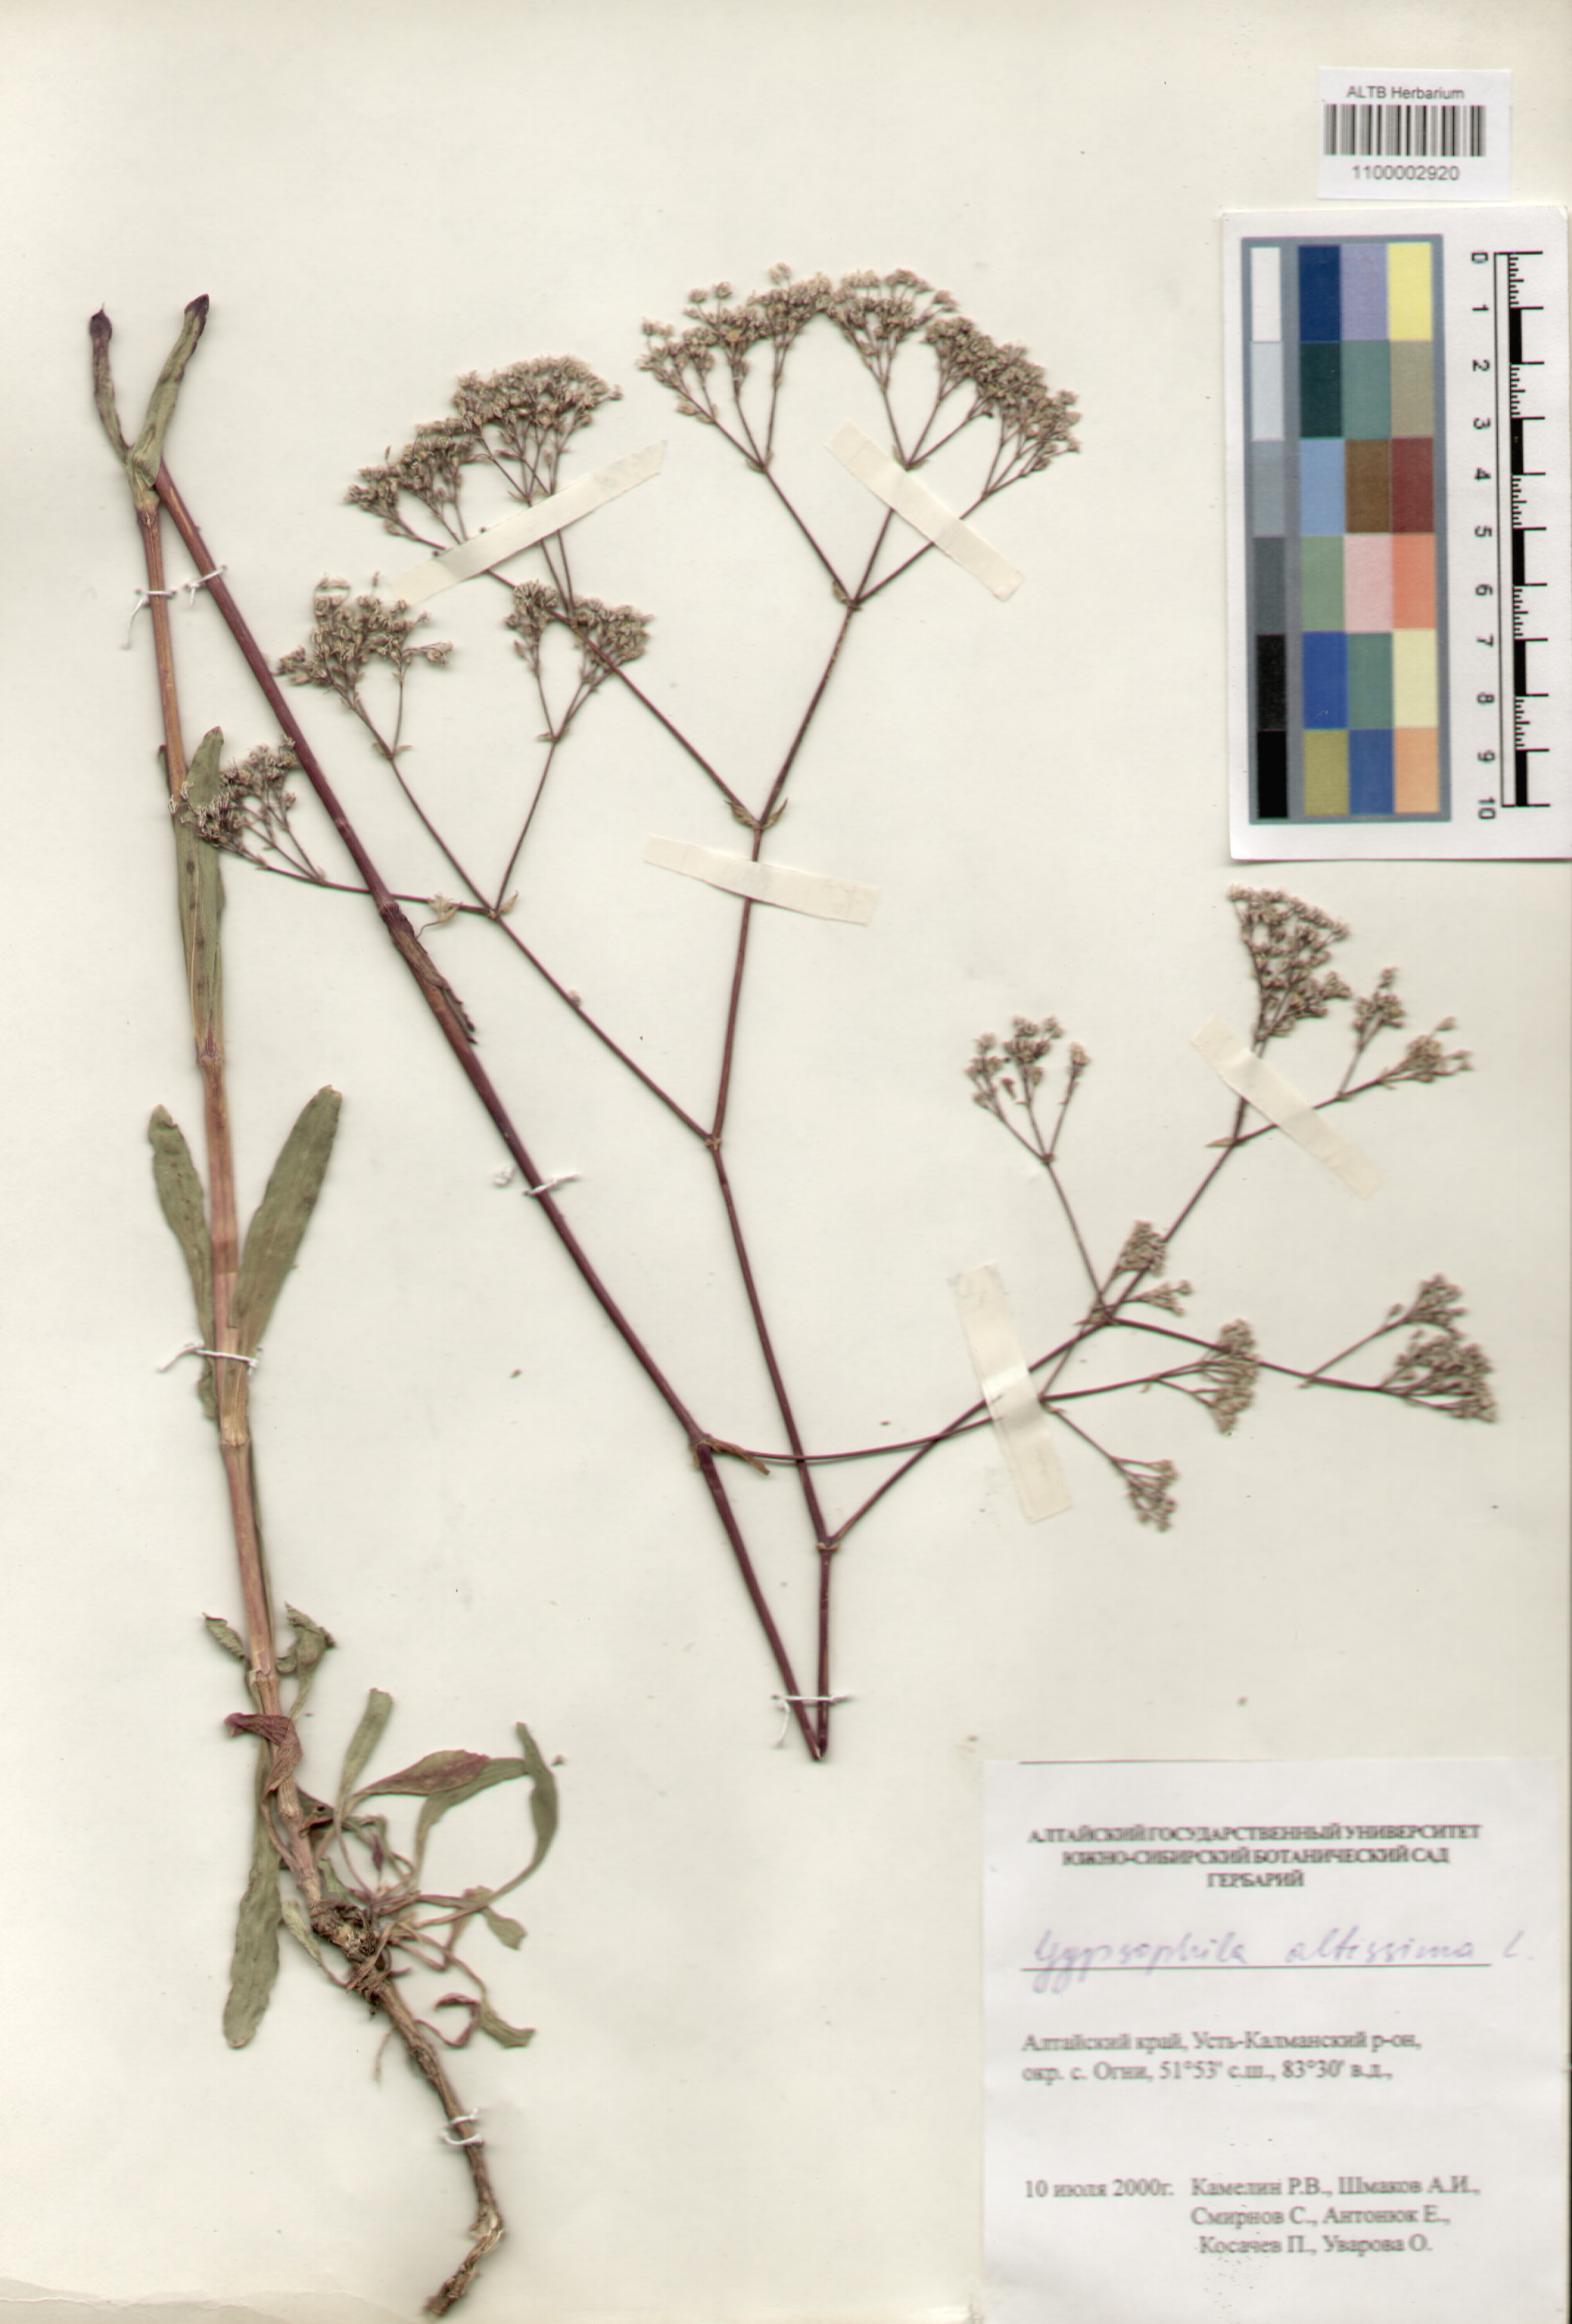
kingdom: Plantae
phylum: Tracheophyta
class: Magnoliopsida
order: Caryophyllales
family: Caryophyllaceae
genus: Gypsophila
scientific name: Gypsophila altissima
